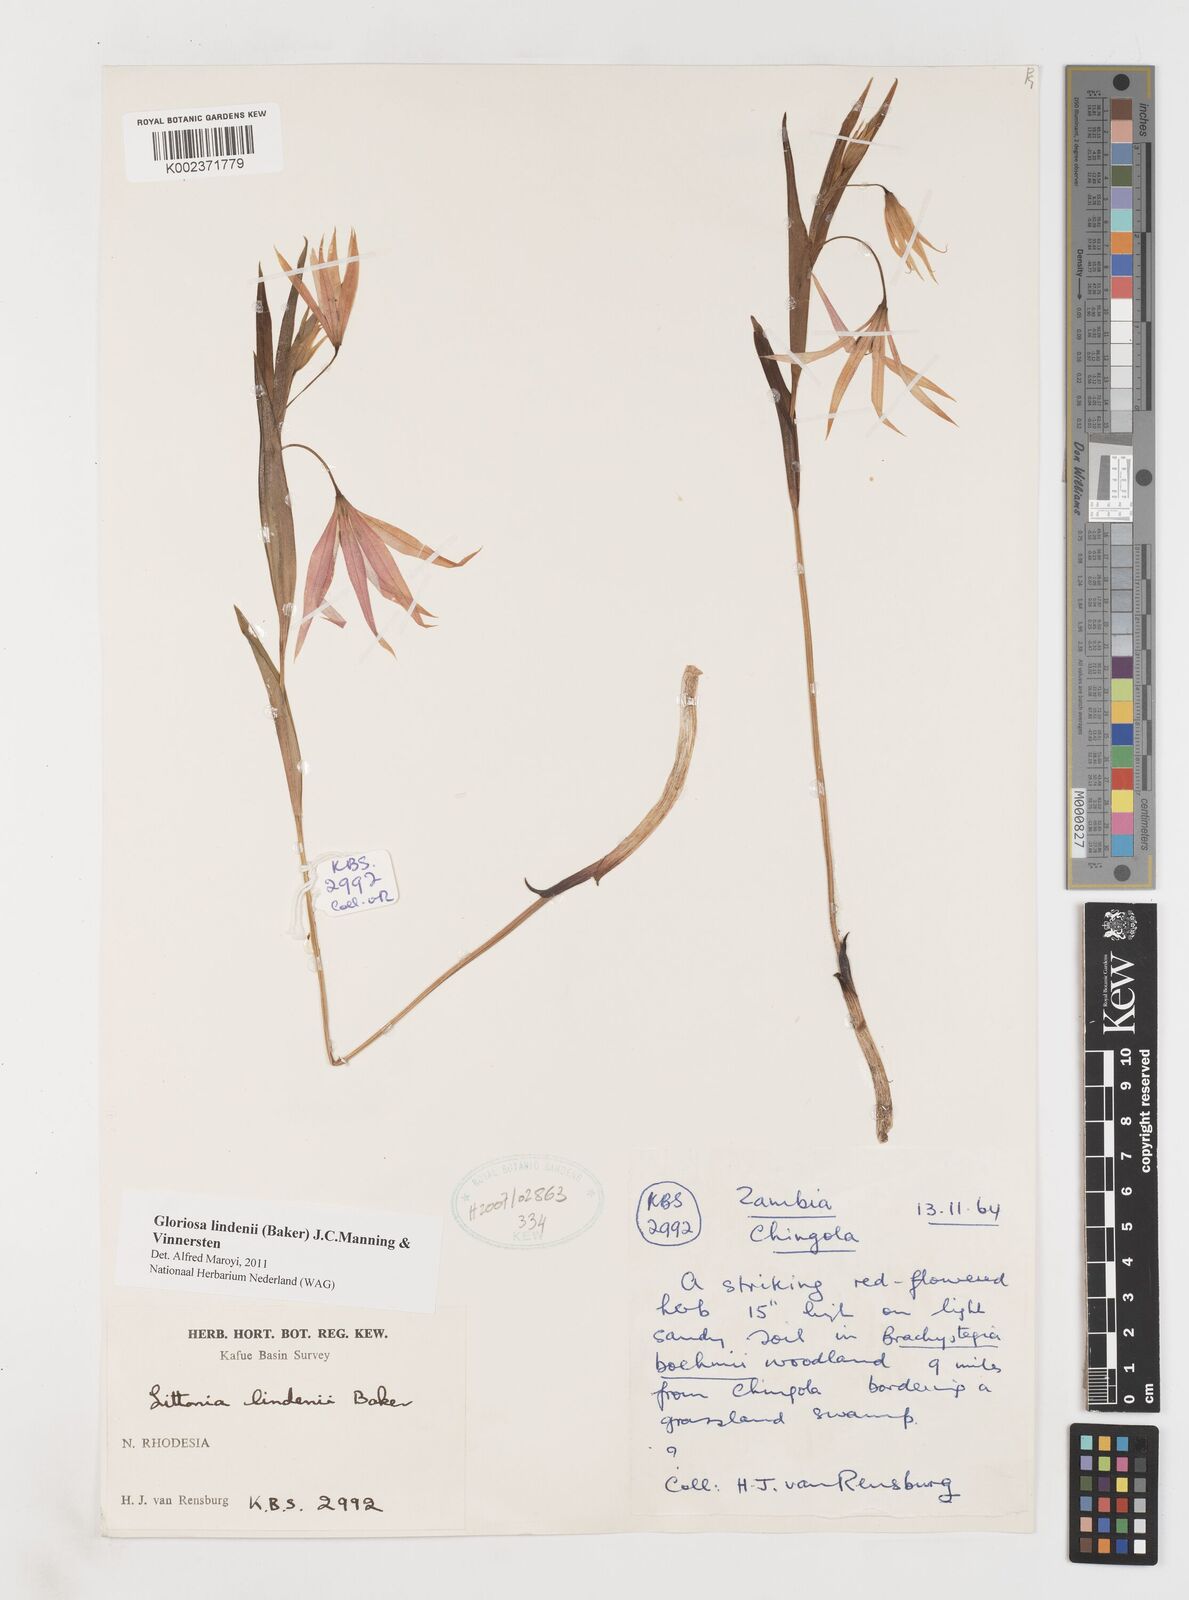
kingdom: Plantae
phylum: Tracheophyta
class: Liliopsida
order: Liliales
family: Colchicaceae
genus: Gloriosa
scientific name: Gloriosa lindenii
